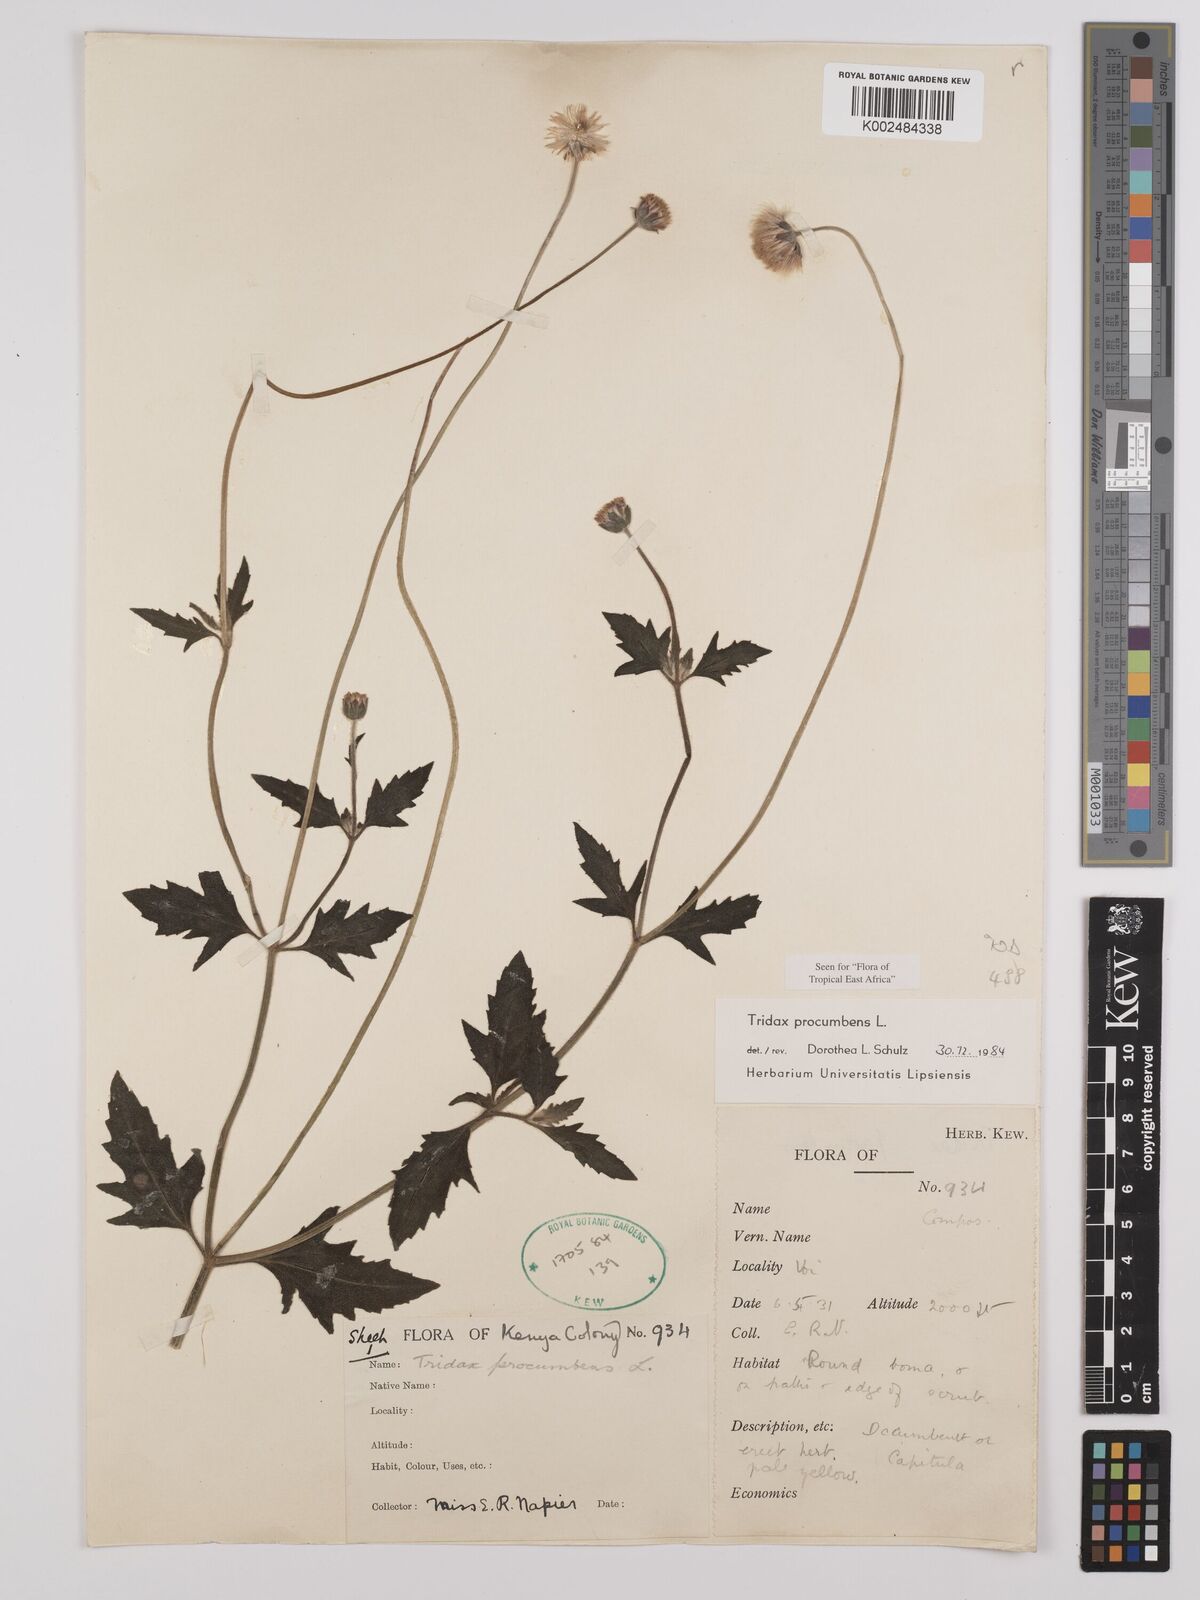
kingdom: Plantae
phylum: Tracheophyta
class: Magnoliopsida
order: Asterales
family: Asteraceae
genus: Tridax
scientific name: Tridax procumbens
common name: Coatbuttons
